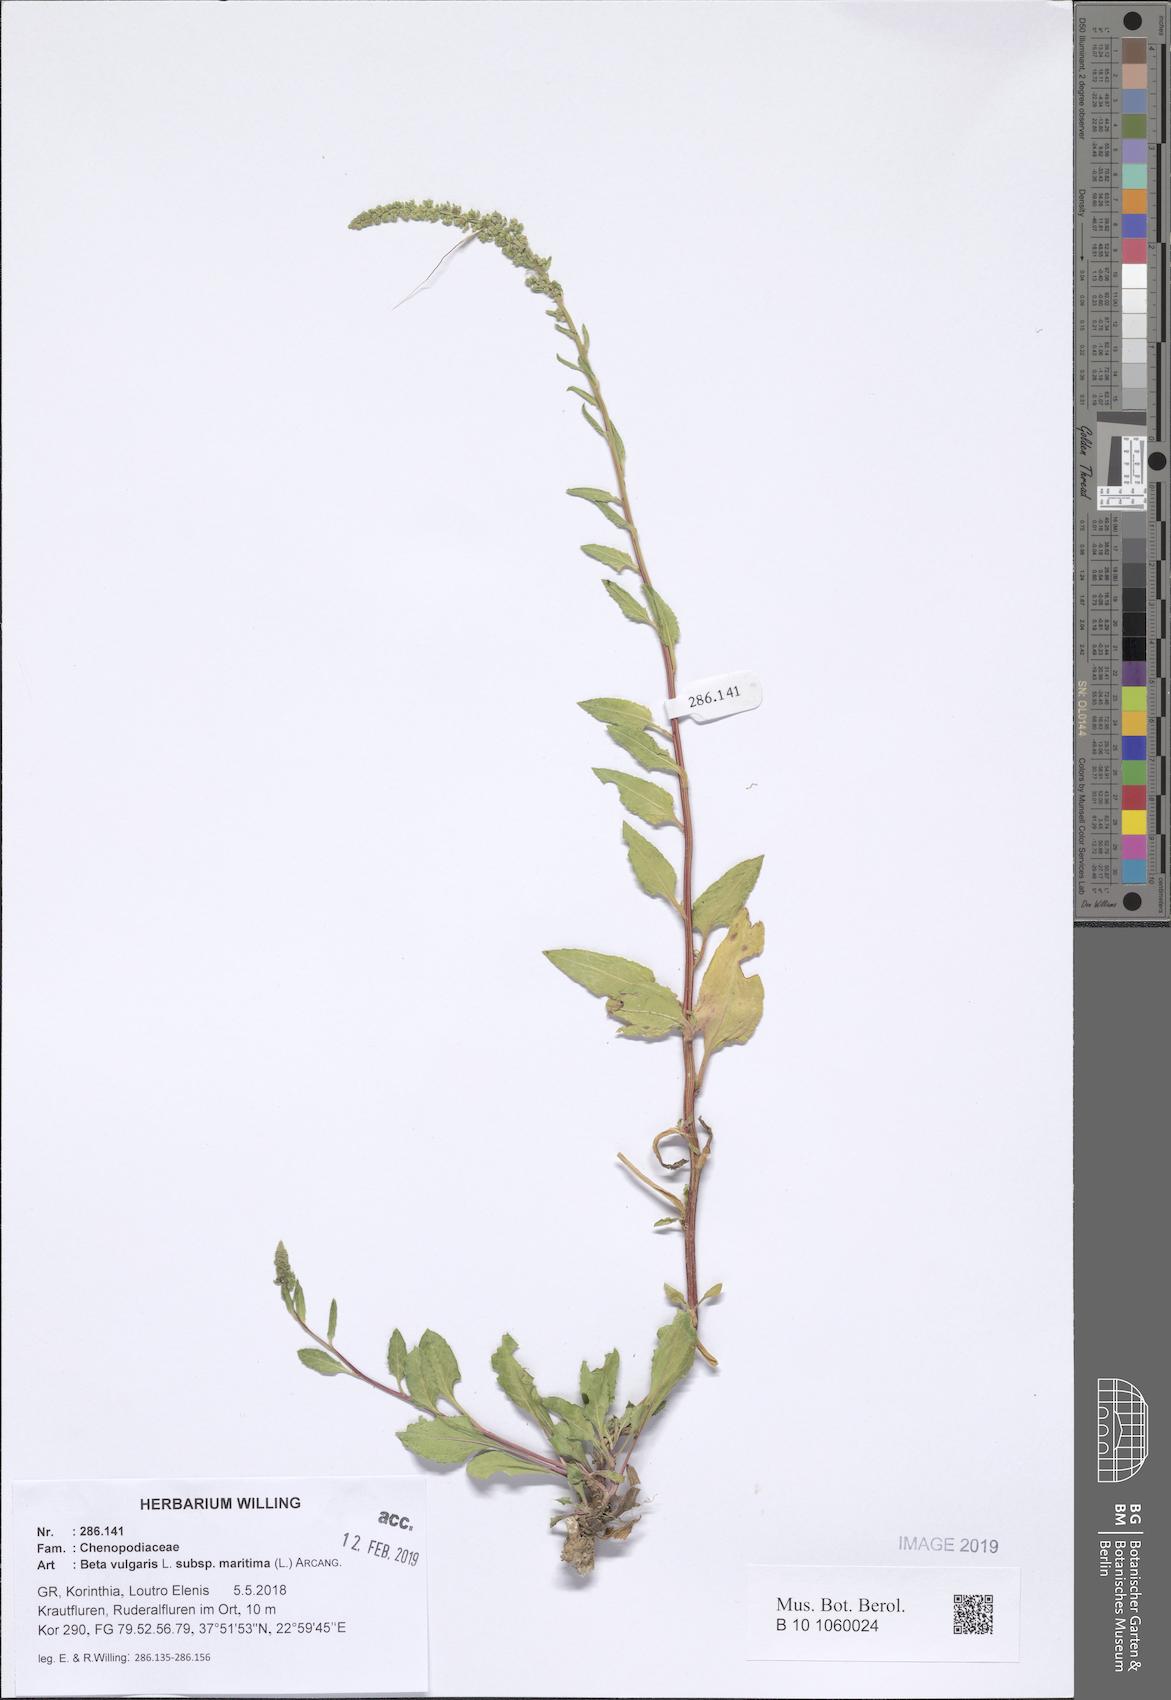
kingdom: Plantae
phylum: Tracheophyta
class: Magnoliopsida
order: Caryophyllales
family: Amaranthaceae
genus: Beta
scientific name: Beta maritima
